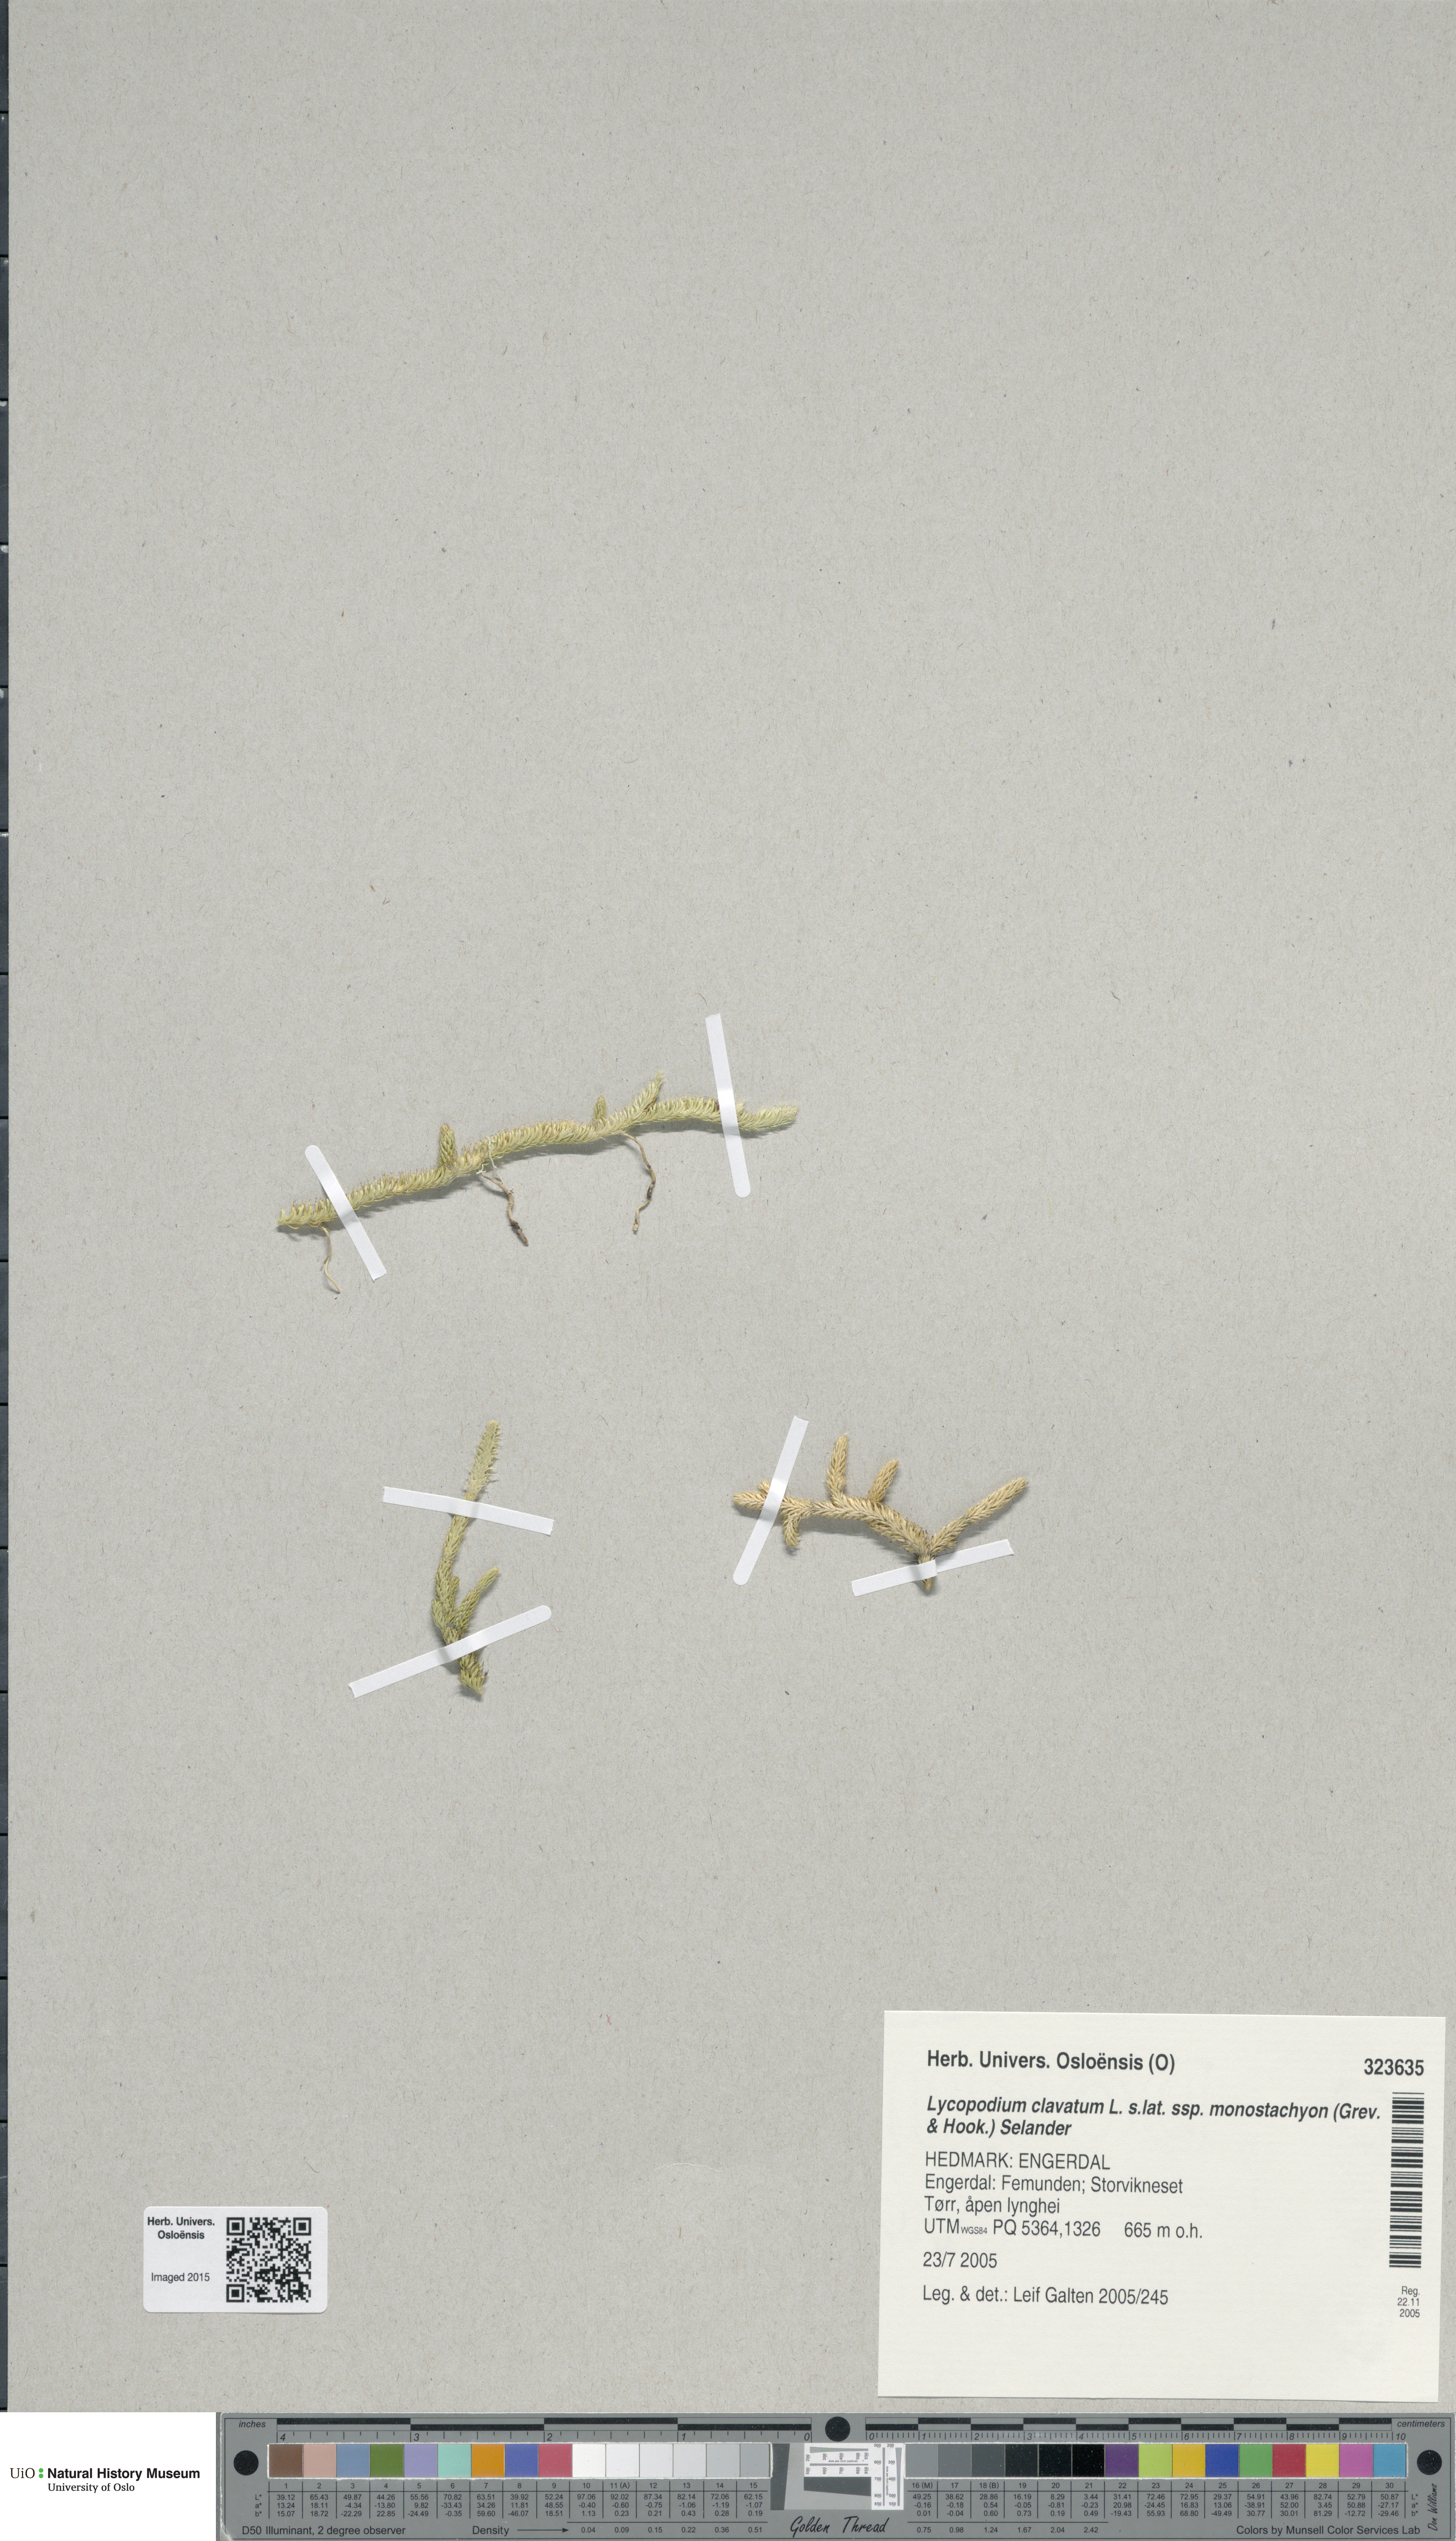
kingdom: Plantae
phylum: Tracheophyta
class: Lycopodiopsida
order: Lycopodiales
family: Lycopodiaceae
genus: Lycopodium
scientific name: Lycopodium lagopus
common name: One-cone clubmoss
